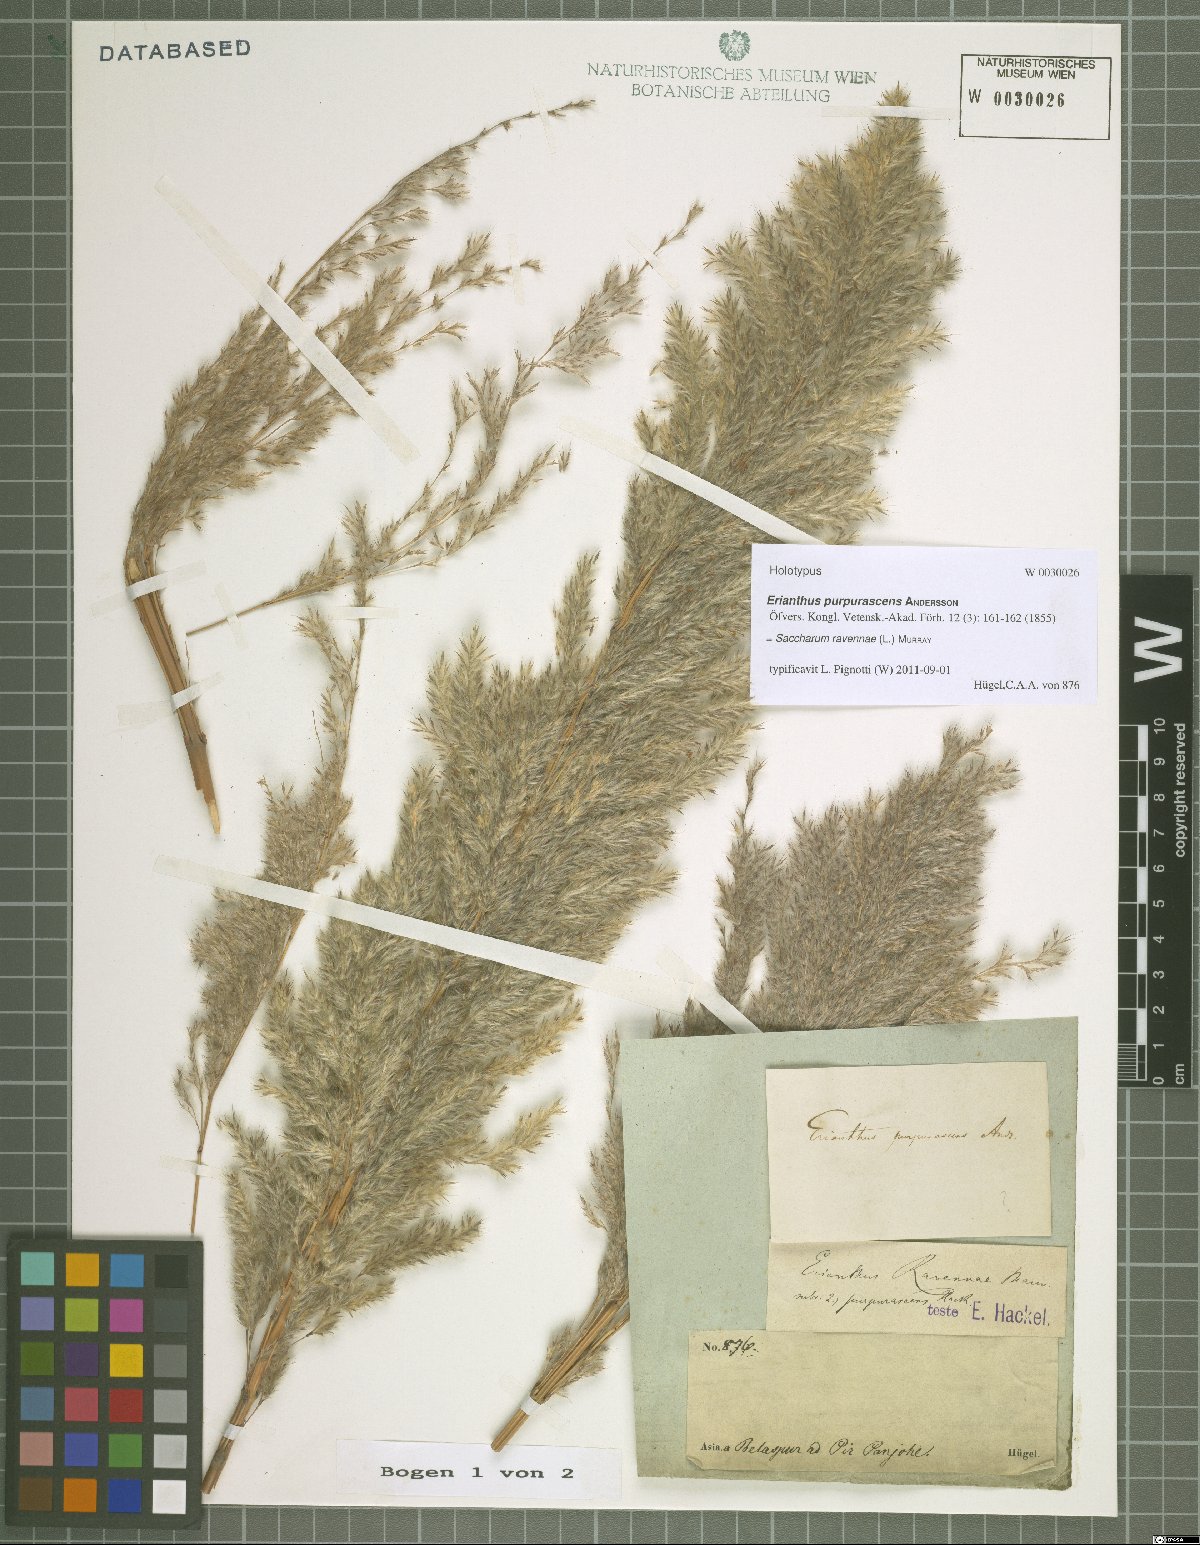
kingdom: Plantae
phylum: Tracheophyta
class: Liliopsida
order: Poales
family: Poaceae
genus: Tripidium
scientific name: Tripidium ravennae
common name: Ravenna grass
